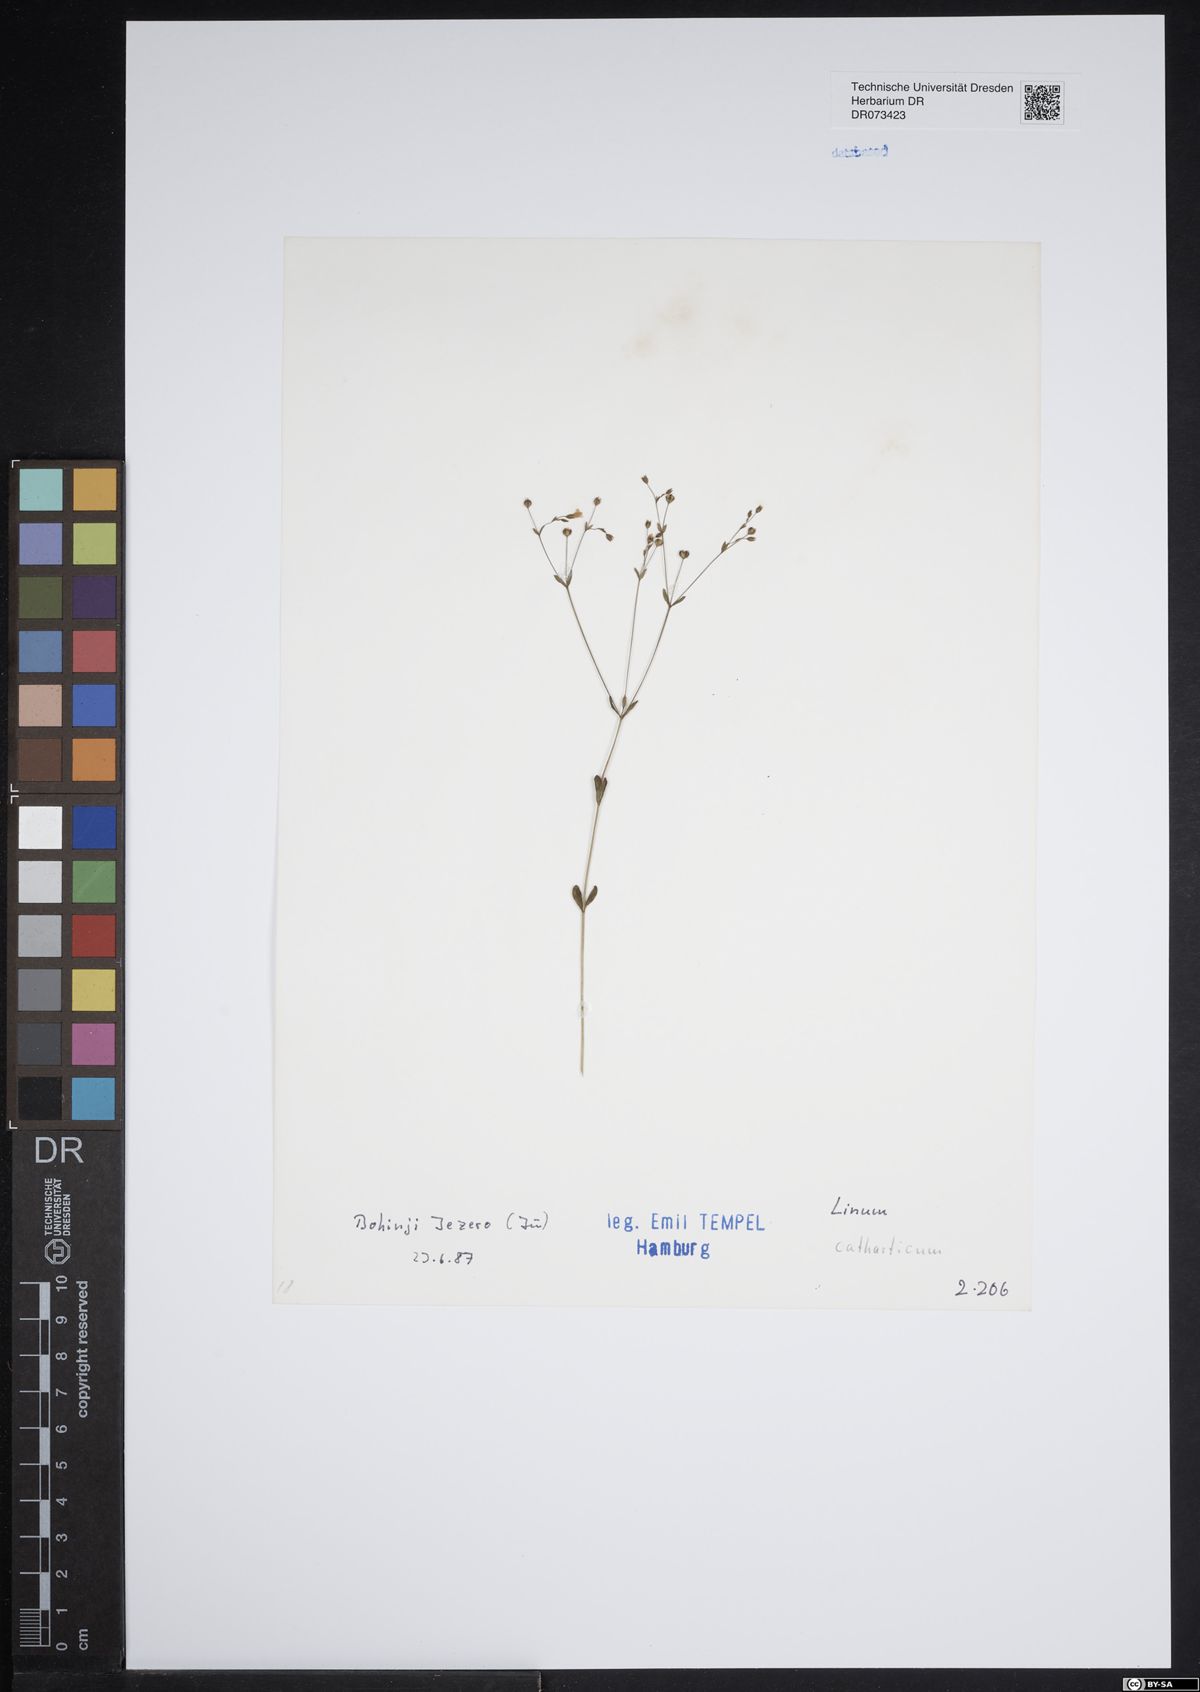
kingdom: Plantae
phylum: Tracheophyta
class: Magnoliopsida
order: Malpighiales
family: Linaceae
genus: Linum
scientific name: Linum catharticum
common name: Fairy flax
